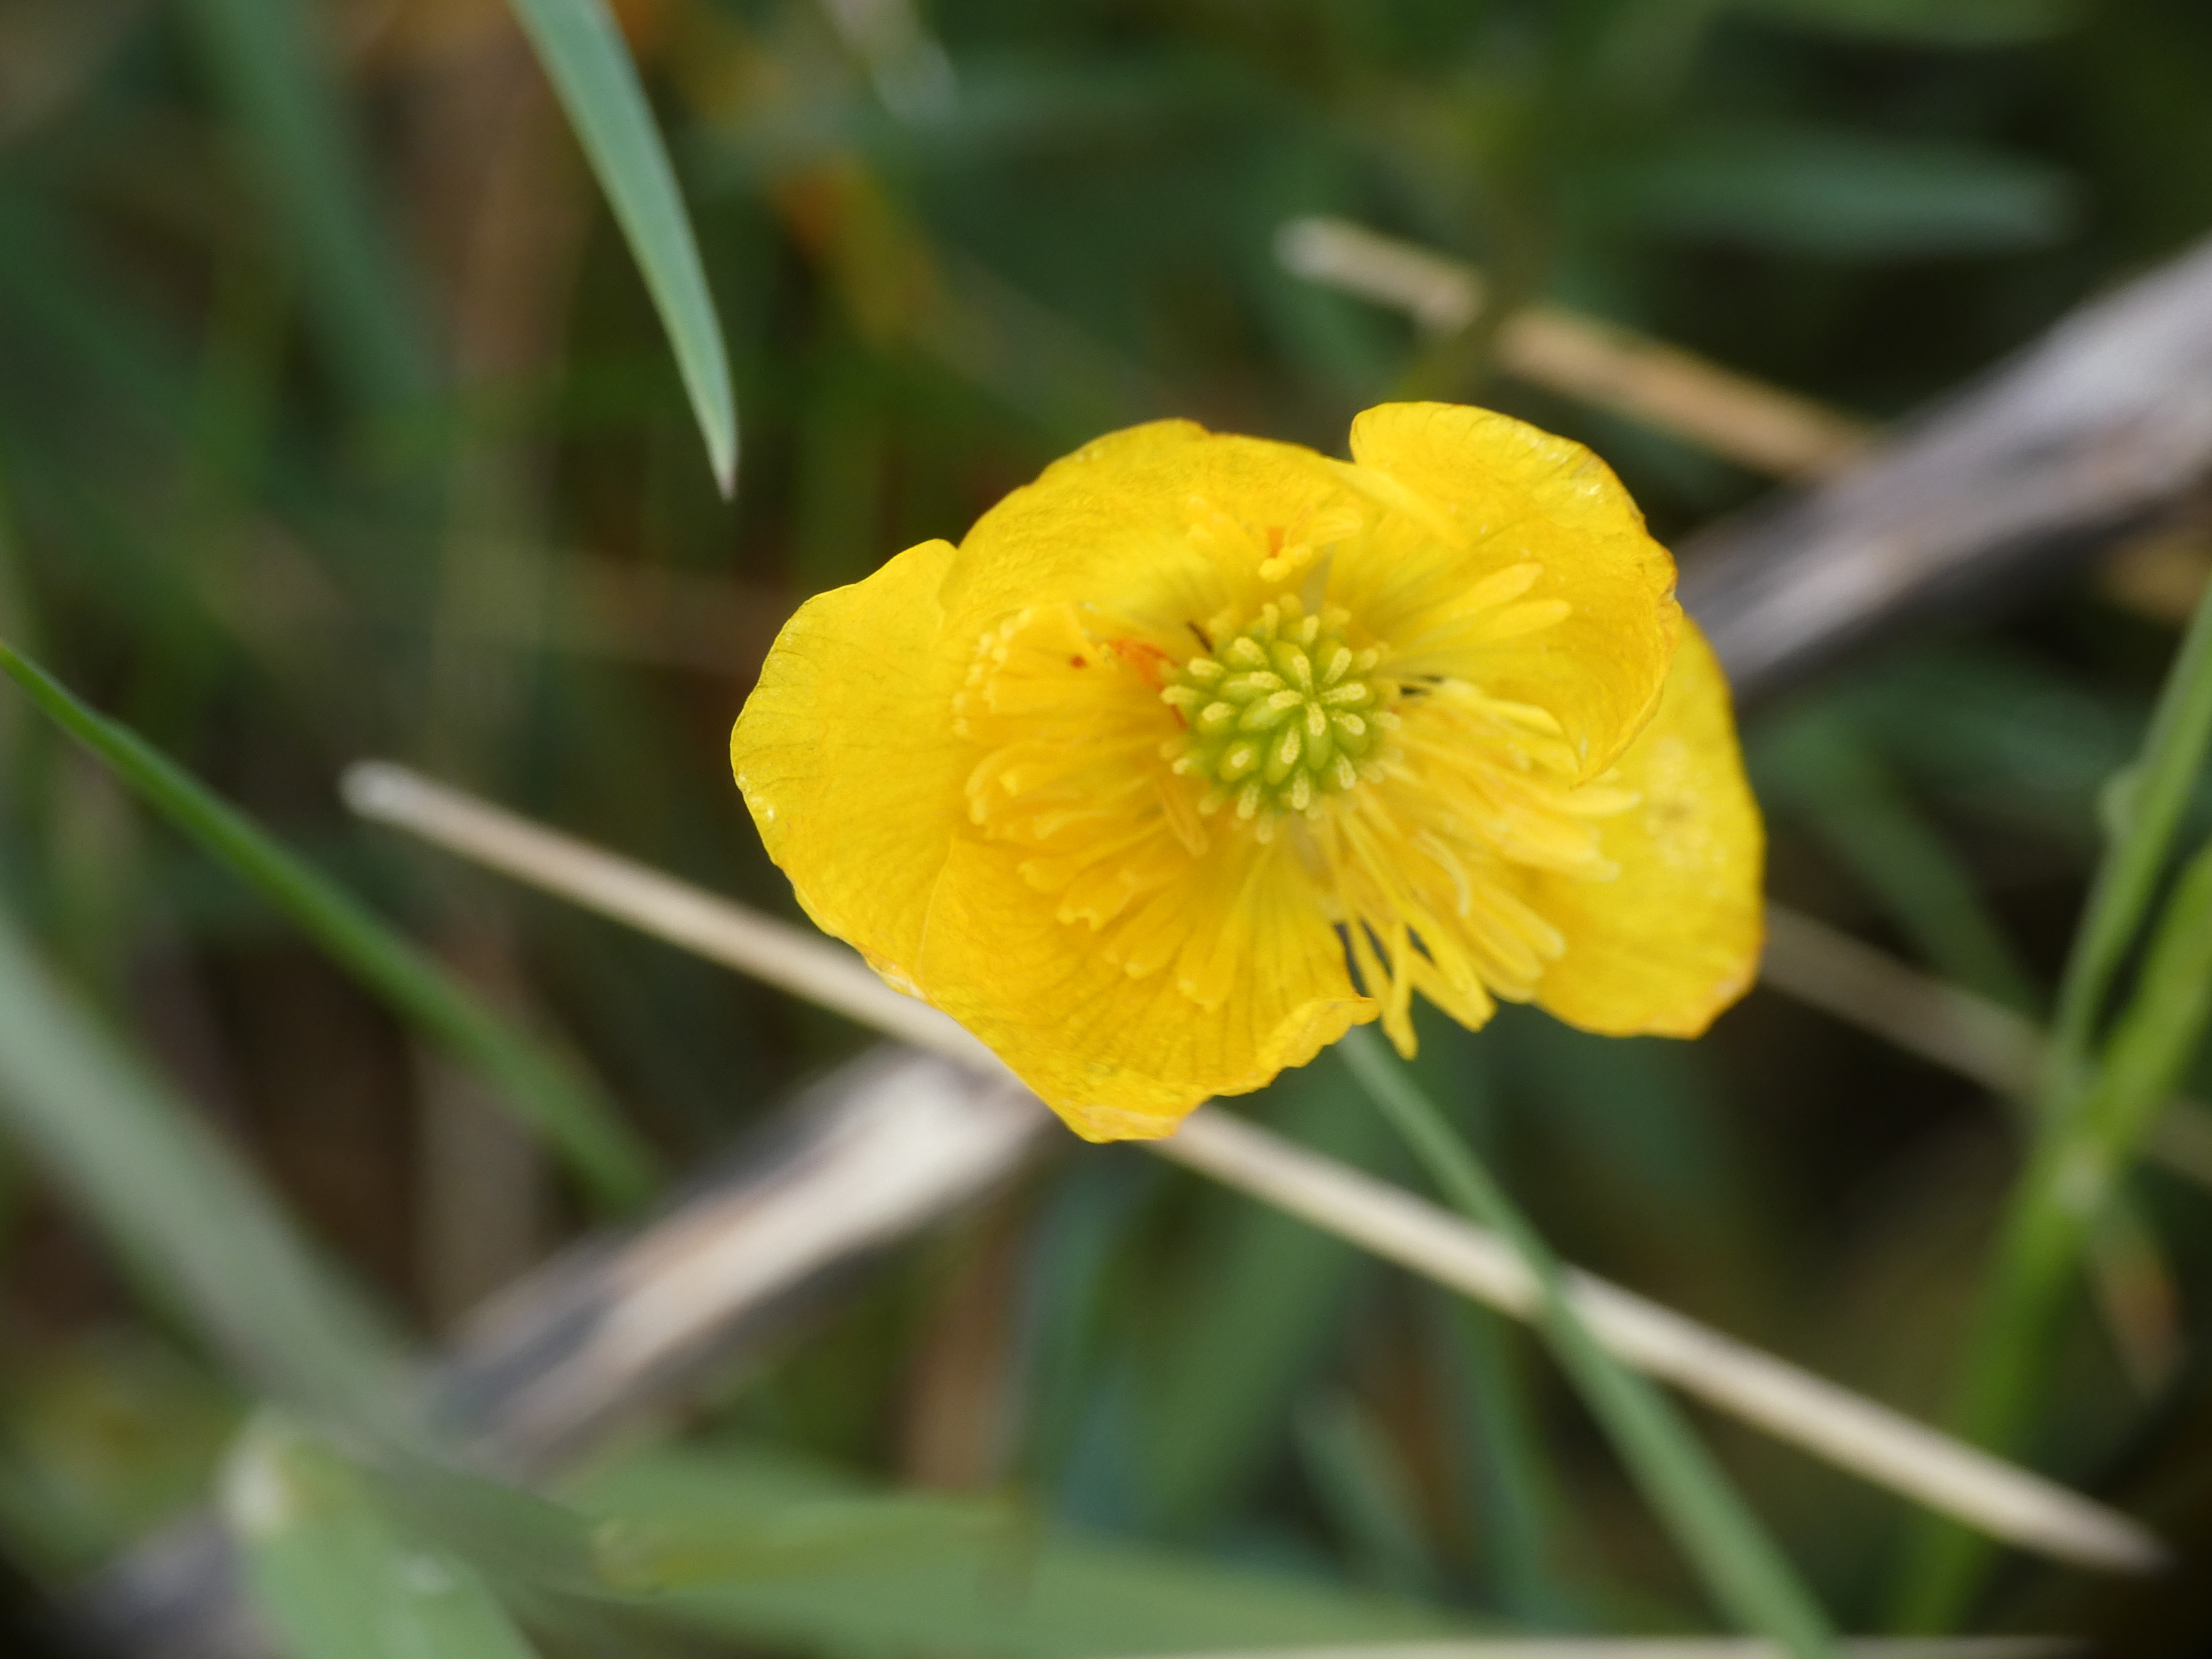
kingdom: Plantae
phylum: Tracheophyta
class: Magnoliopsida
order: Ranunculales
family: Ranunculaceae
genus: Ranunculus
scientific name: Ranunculus acris
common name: Bidende ranunkel
